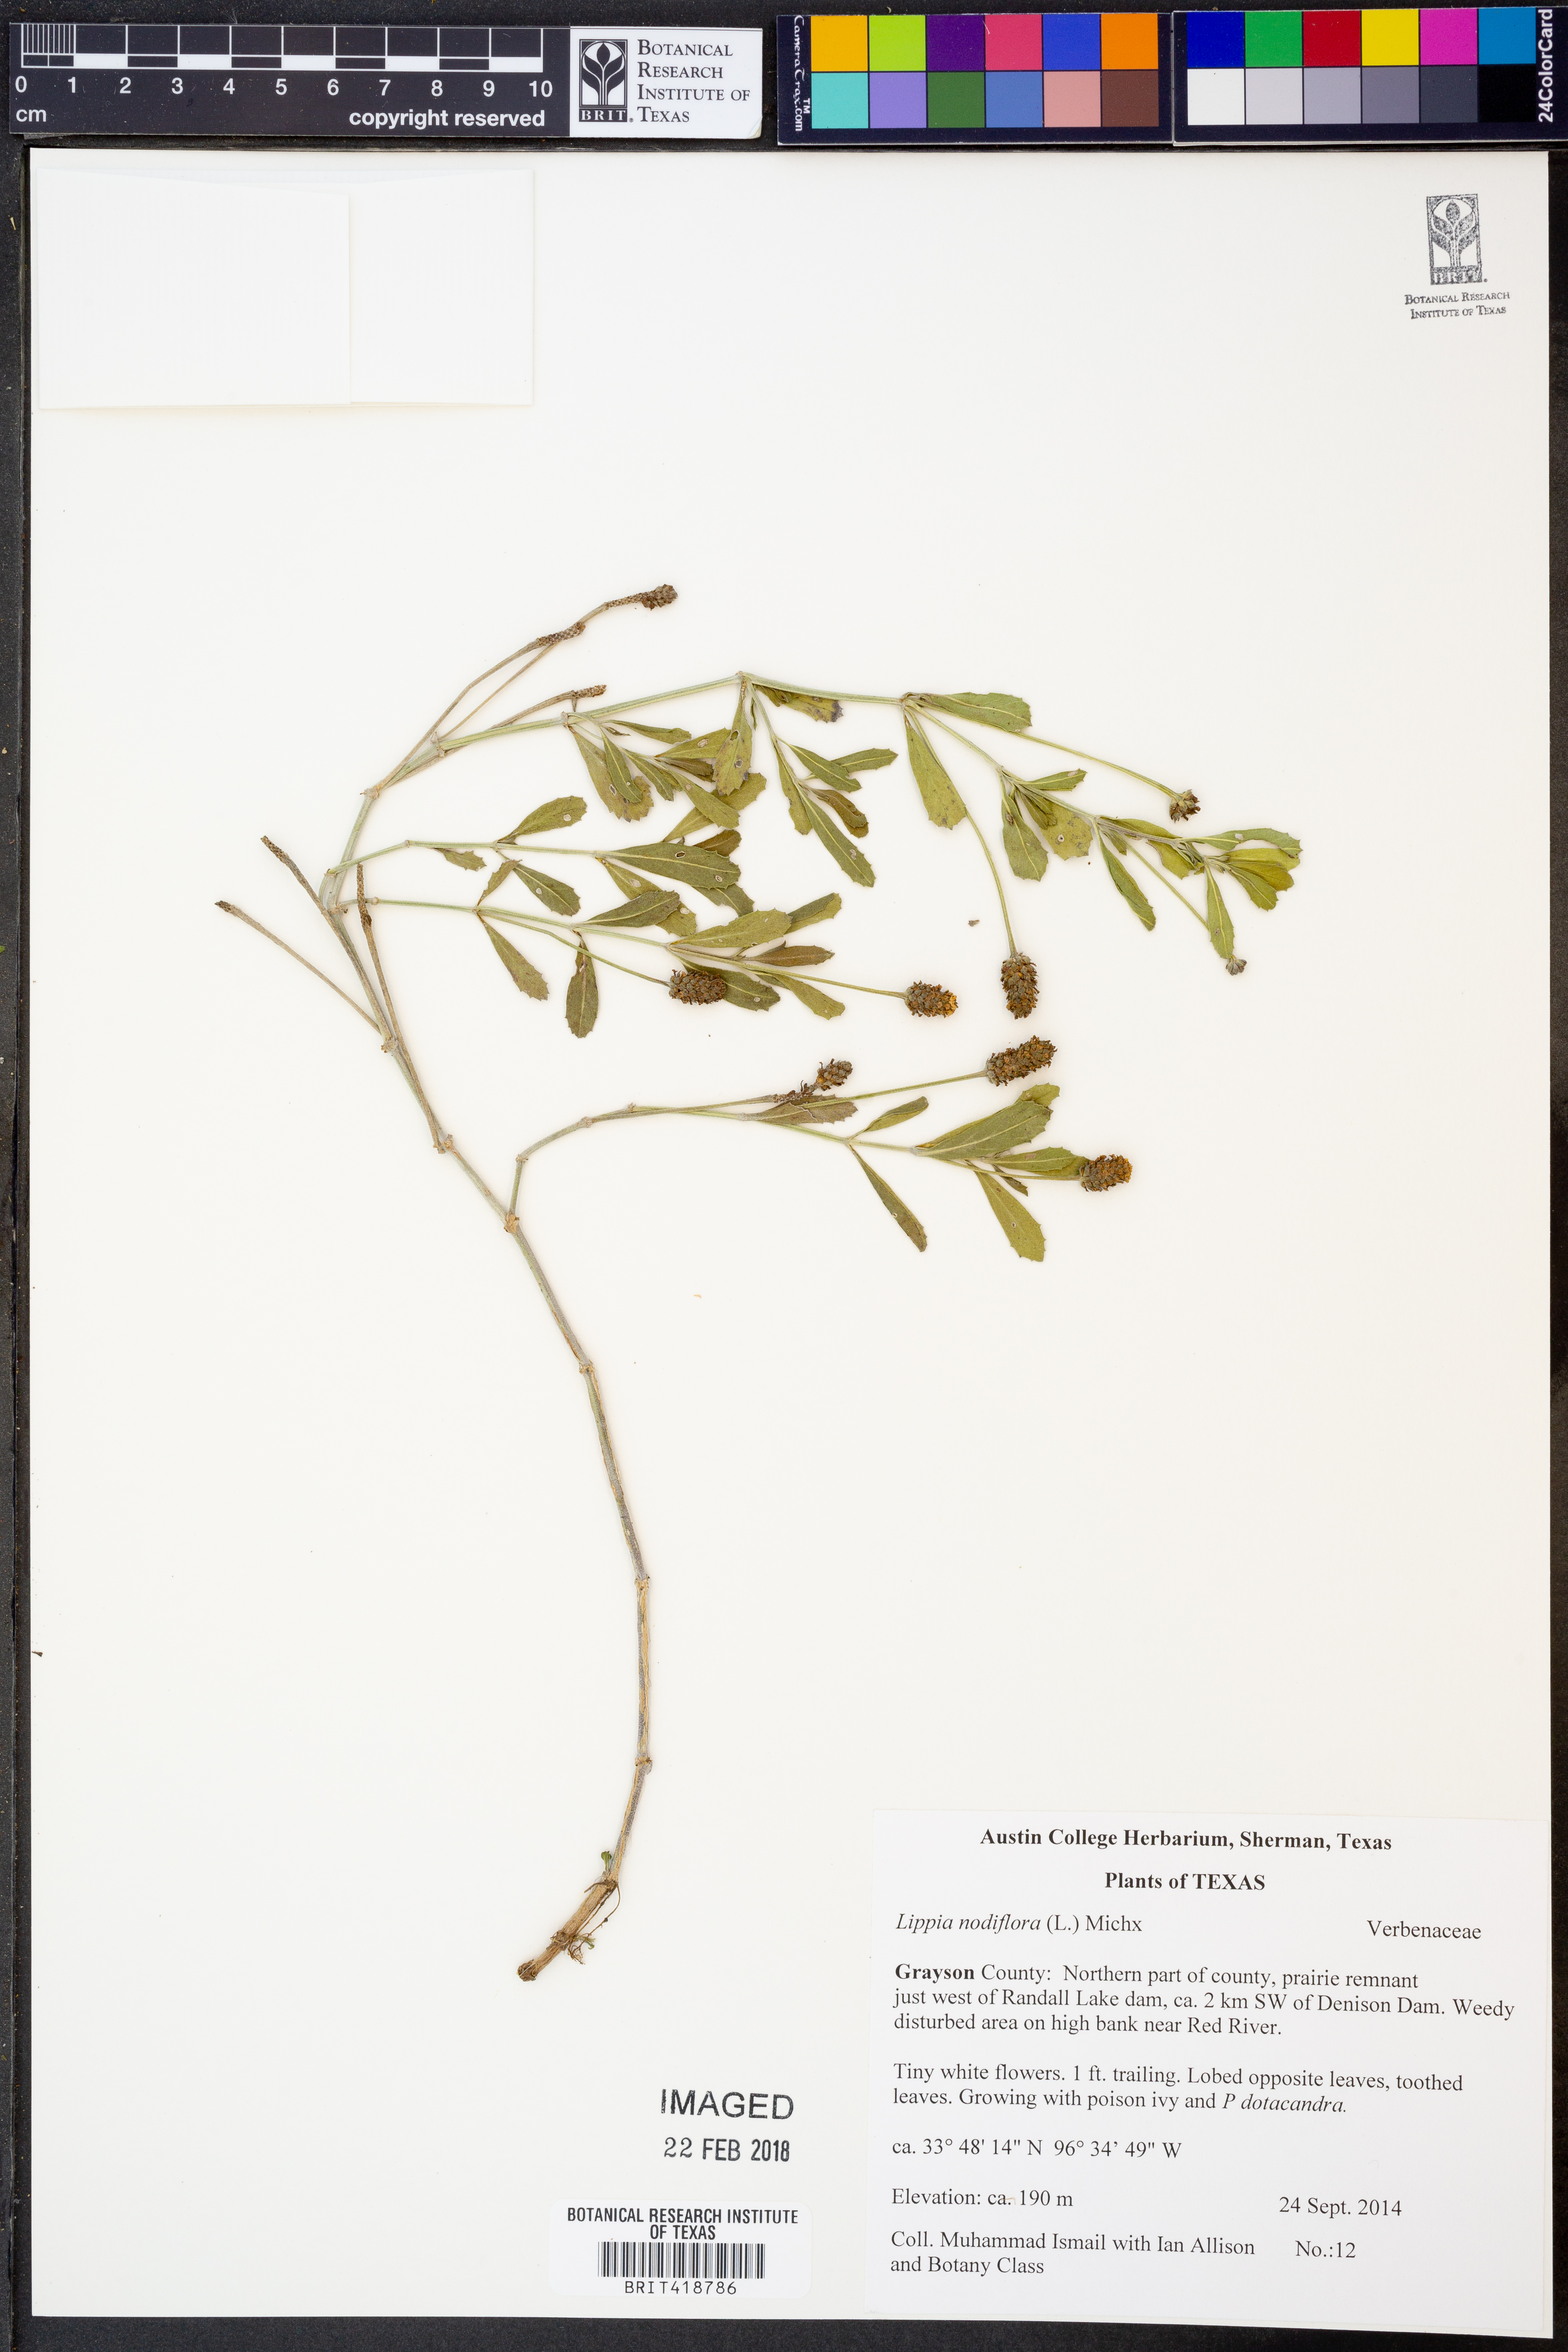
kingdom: Plantae
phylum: Tracheophyta
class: Magnoliopsida
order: Lamiales
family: Verbenaceae
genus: Phyla
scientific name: Phyla nodiflora
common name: Frogfruit
